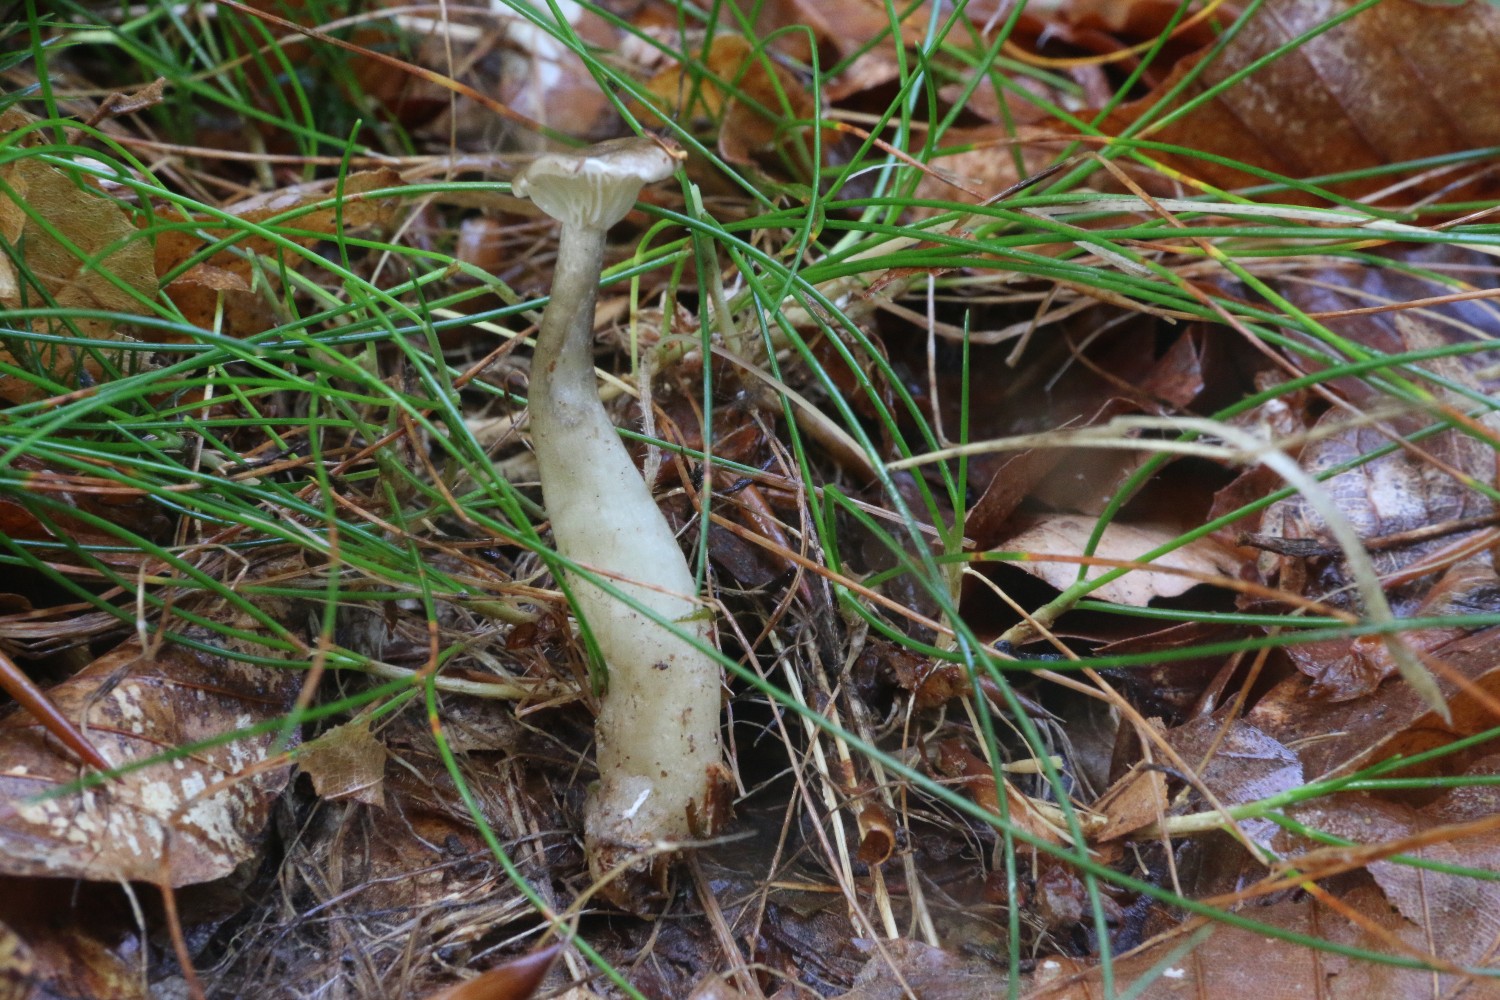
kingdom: Fungi
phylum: Basidiomycota
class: Agaricomycetes
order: Agaricales
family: Hygrophoraceae
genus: Ampulloclitocybe
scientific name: Ampulloclitocybe clavipes
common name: køllefod
